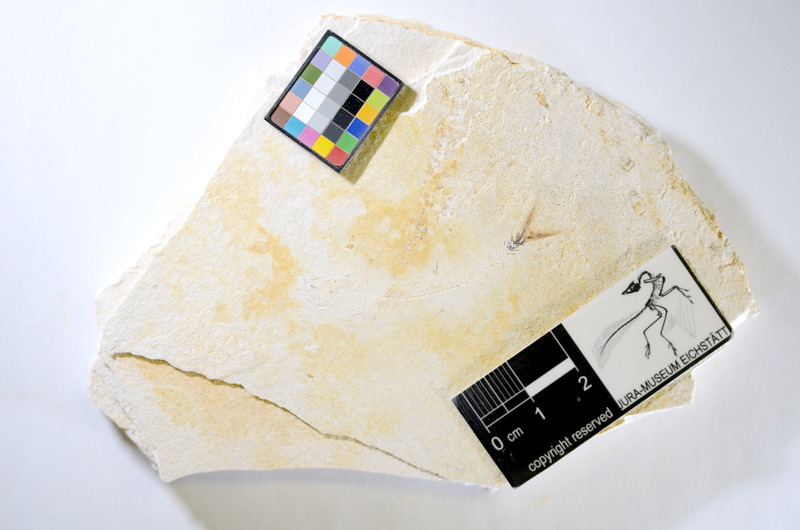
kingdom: Animalia
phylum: Chordata
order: Salmoniformes
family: Orthogonikleithridae
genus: Orthogonikleithrus
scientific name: Orthogonikleithrus hoelli
